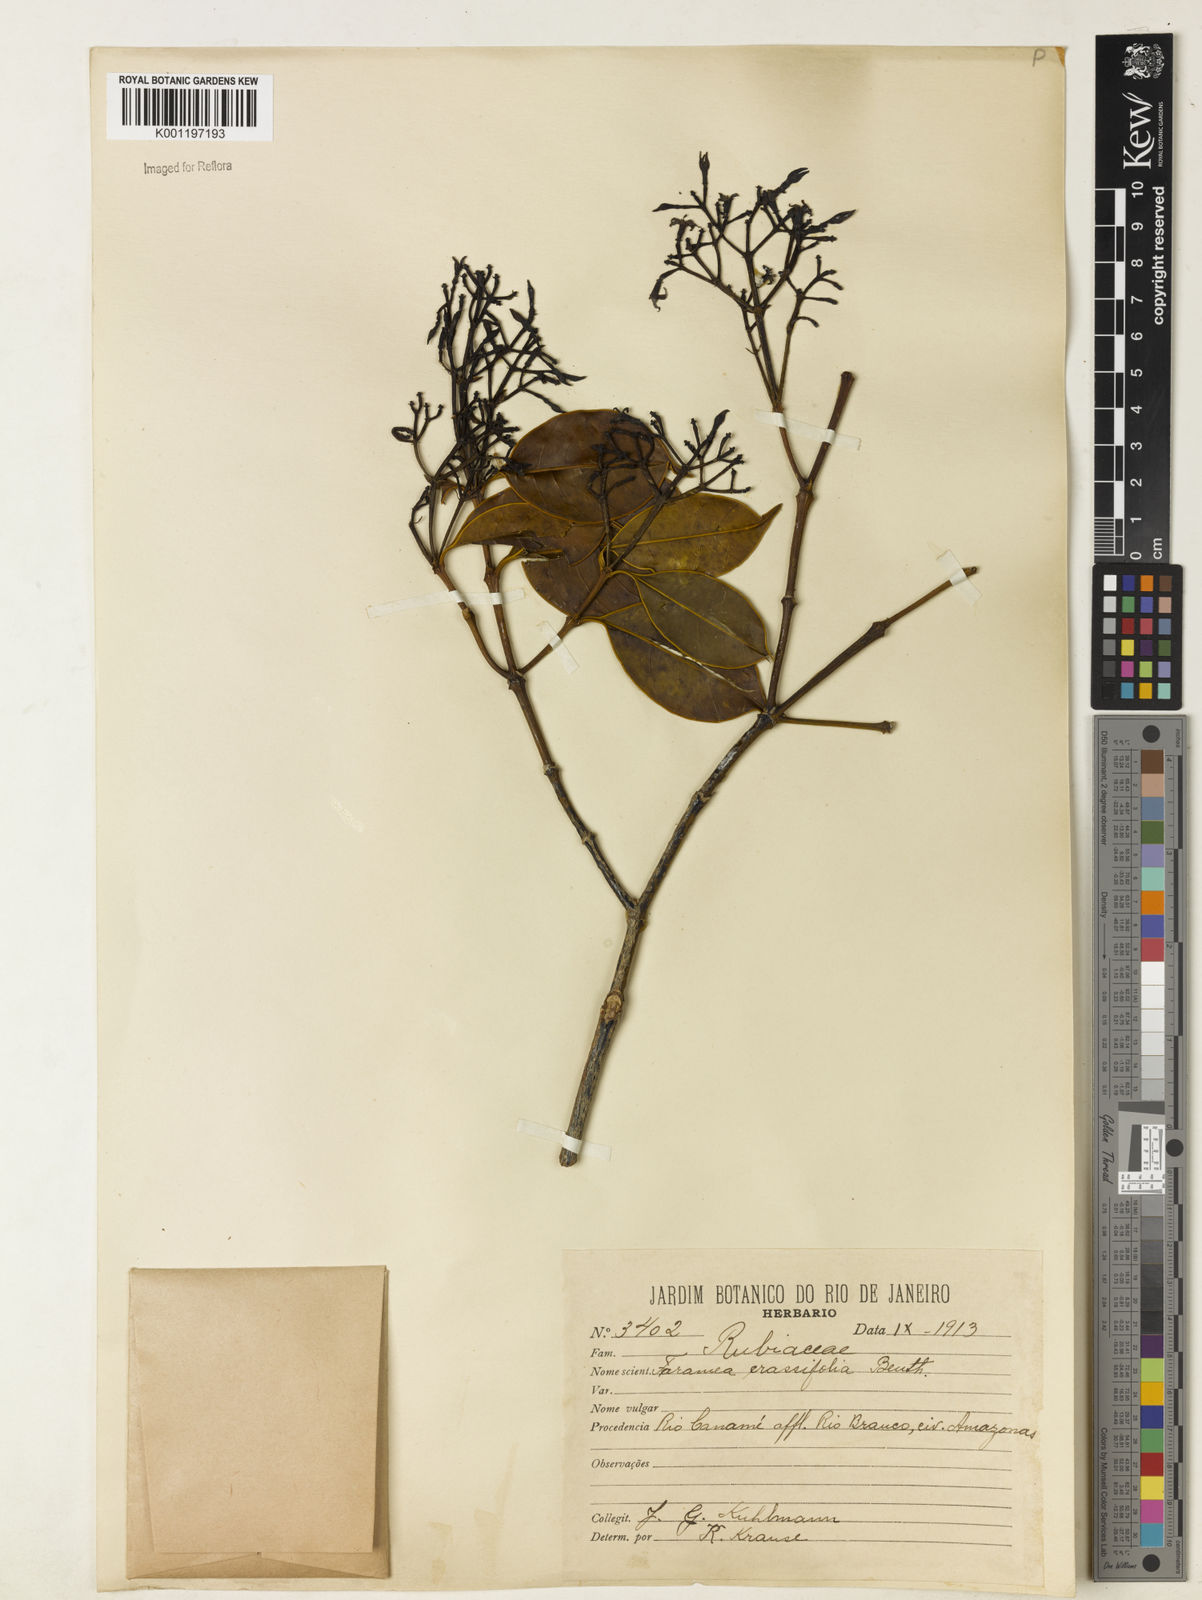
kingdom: Plantae
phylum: Tracheophyta
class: Magnoliopsida
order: Gentianales
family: Rubiaceae
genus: Faramea
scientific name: Faramea crassifolia
